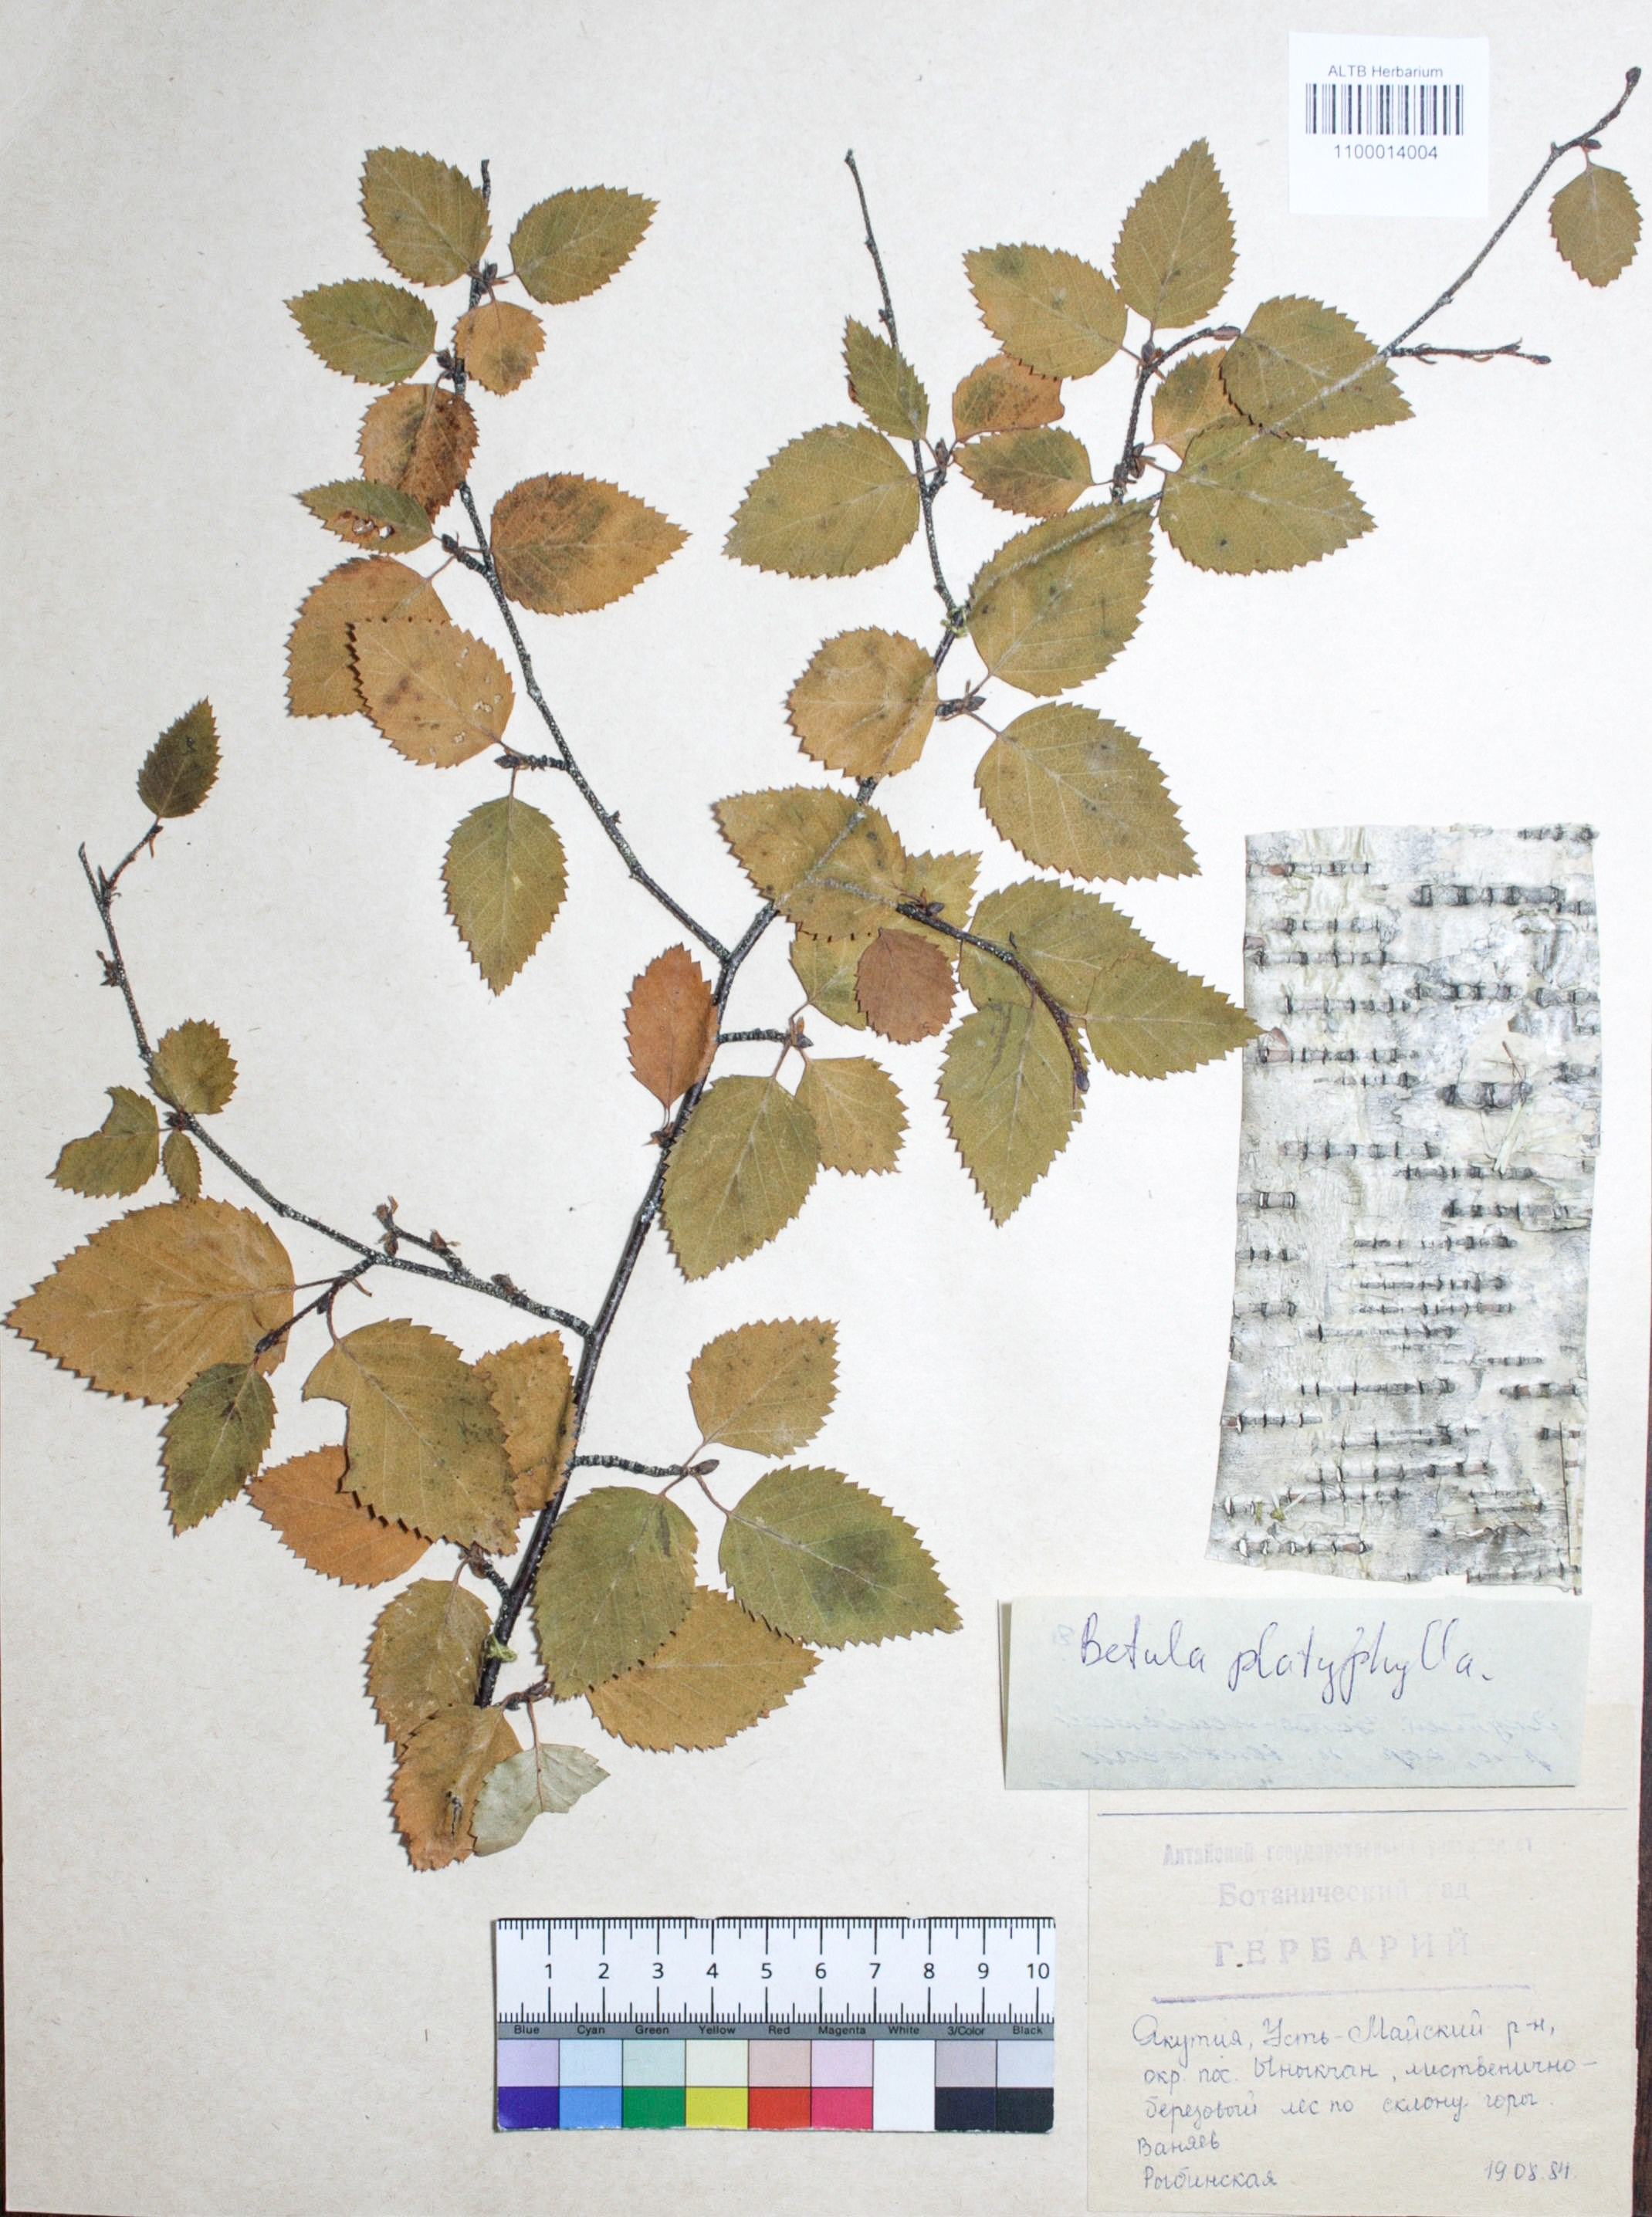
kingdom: Plantae
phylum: Tracheophyta
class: Magnoliopsida
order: Fagales
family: Betulaceae
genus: Betula
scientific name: Betula pendula
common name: Silver birch
